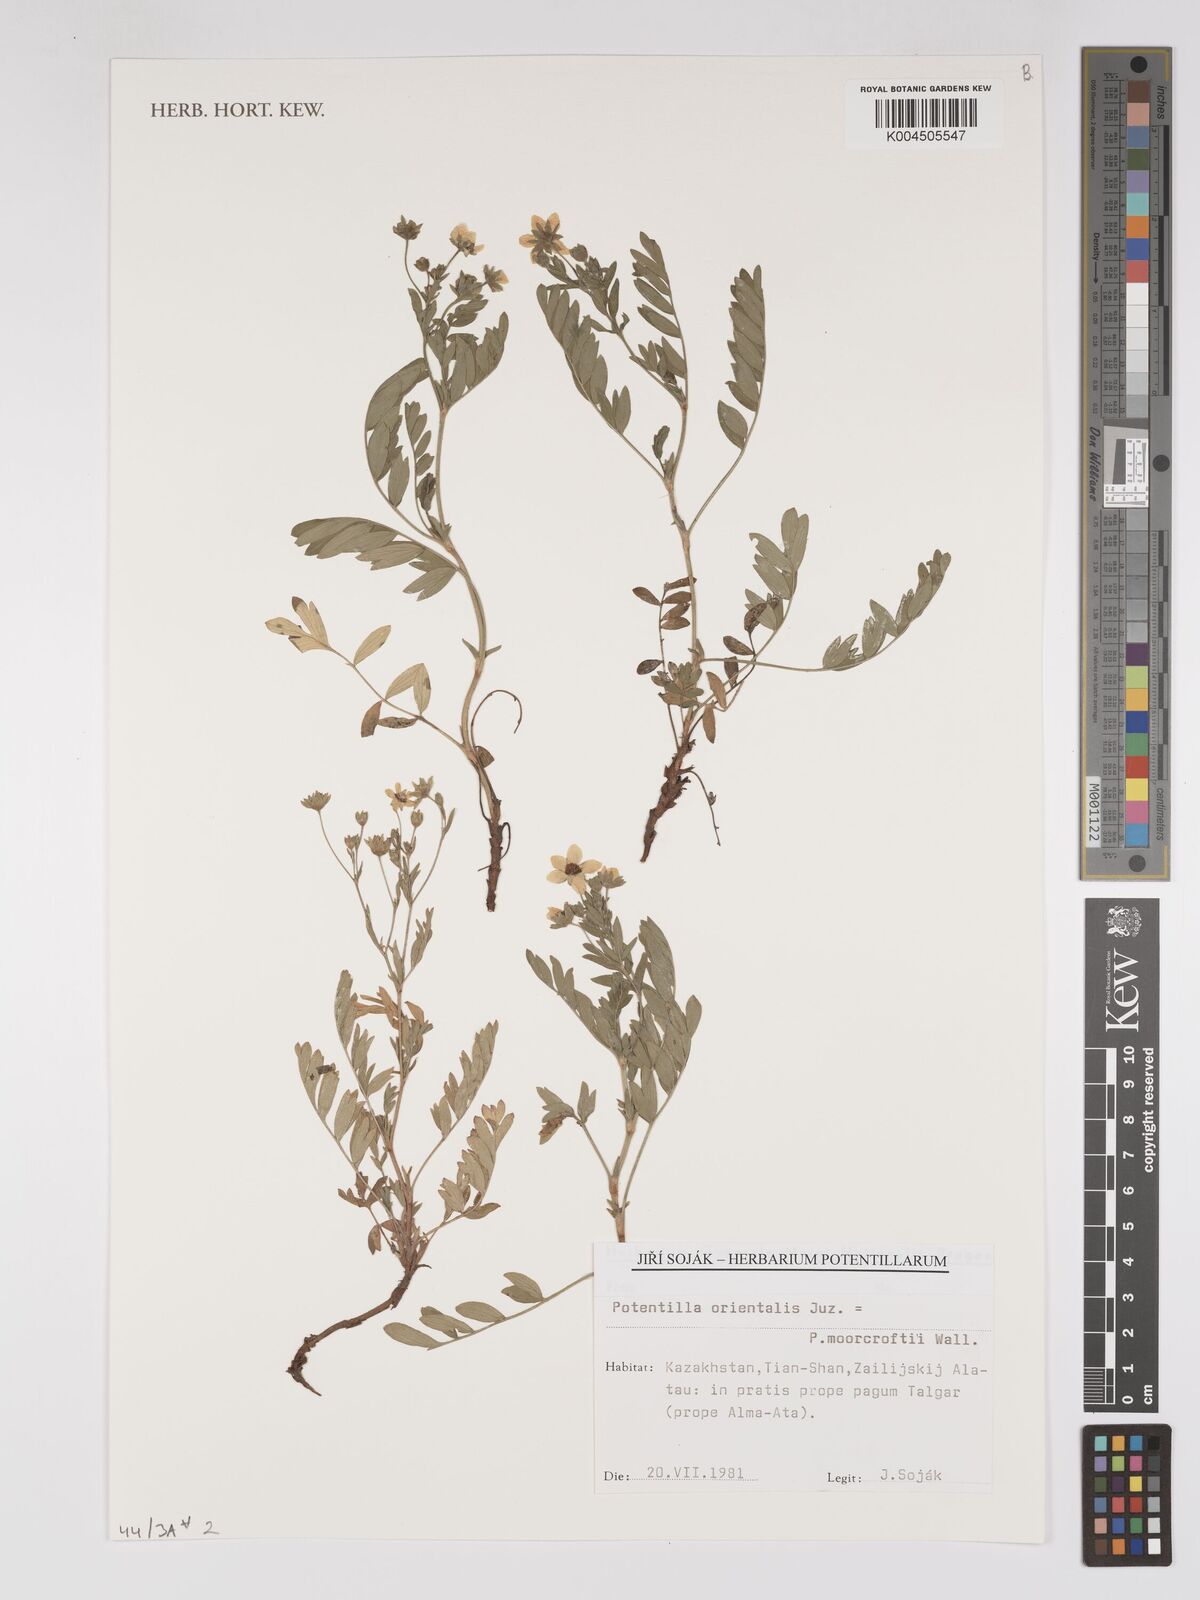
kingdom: Plantae
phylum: Tracheophyta
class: Magnoliopsida
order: Rosales
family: Rosaceae
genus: Sibbaldianthe
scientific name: Sibbaldianthe orientalis
